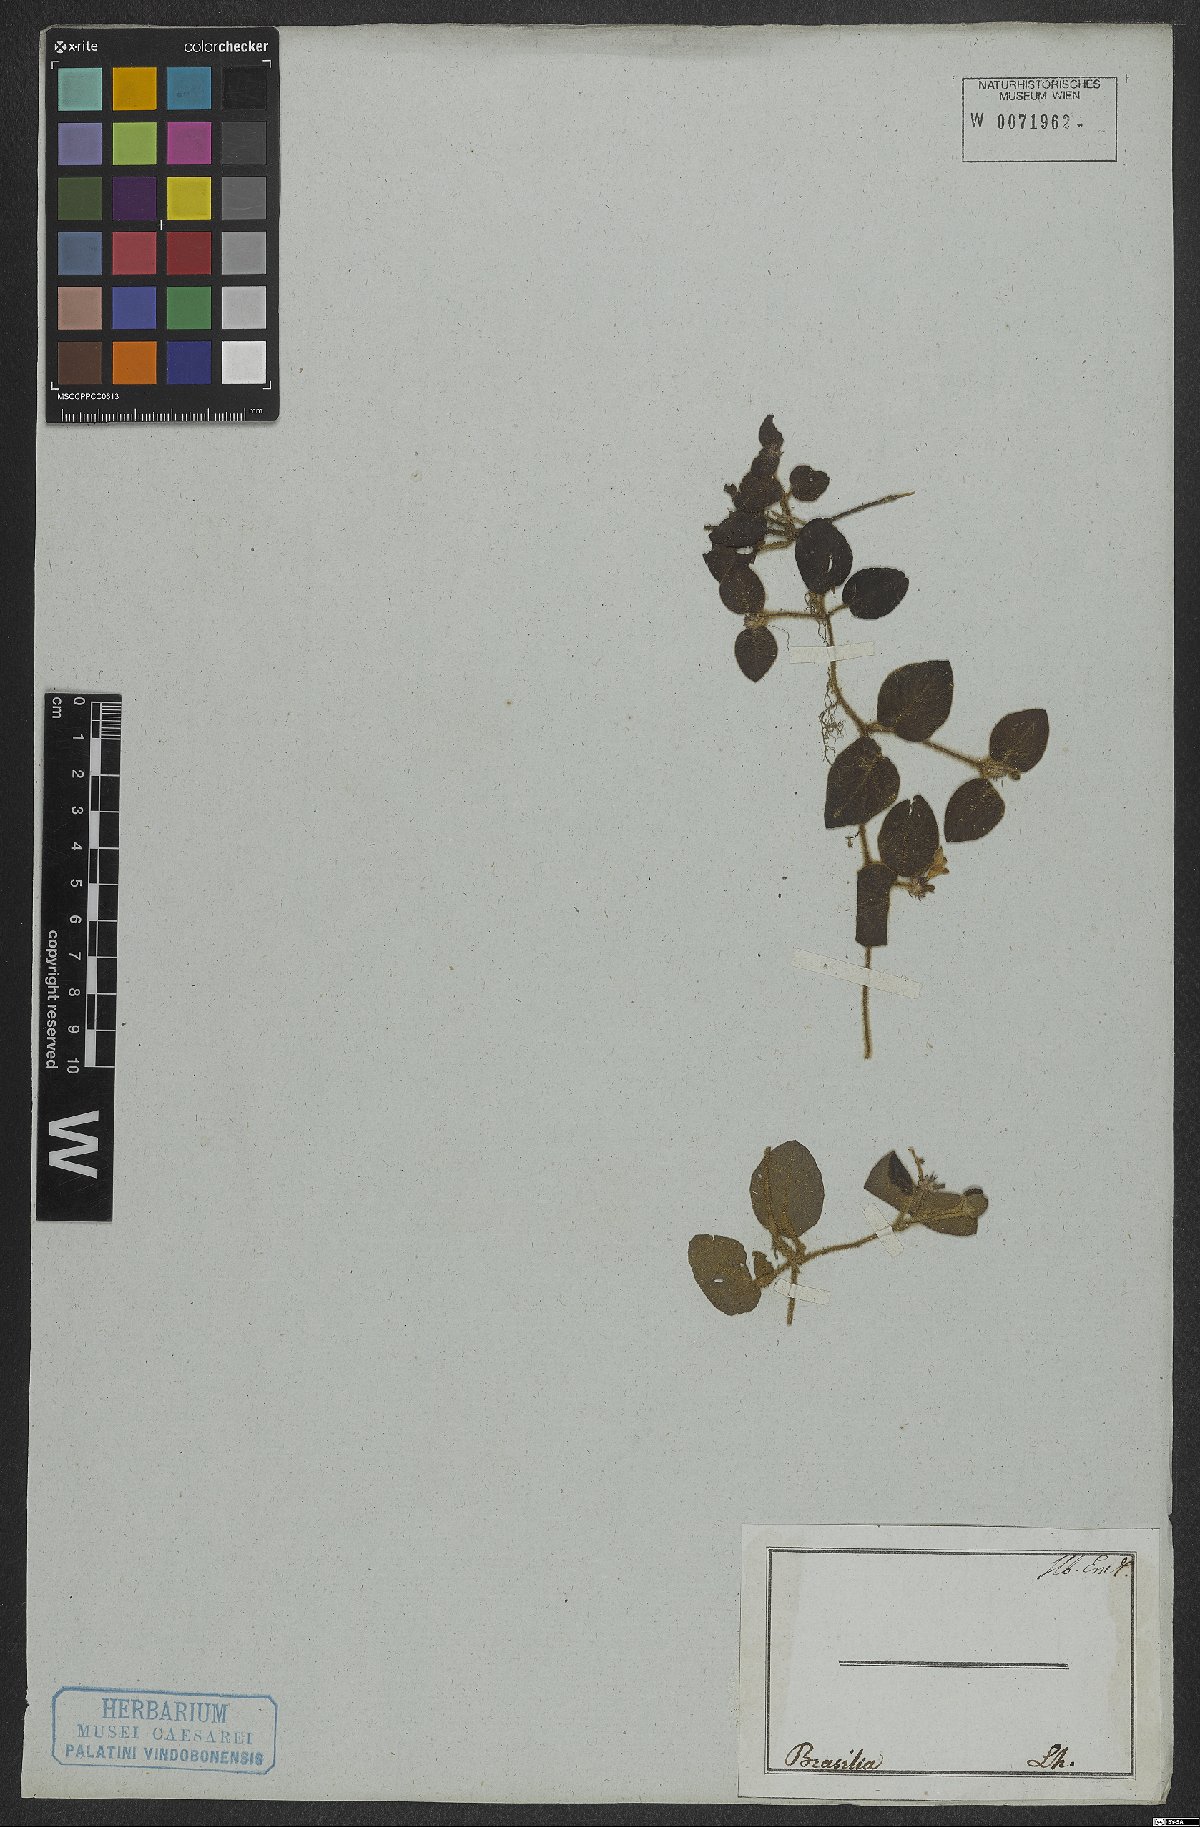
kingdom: Plantae
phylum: Tracheophyta
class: Magnoliopsida
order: Gentianales
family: Rubiaceae
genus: Coccocypselum
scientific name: Coccocypselum
